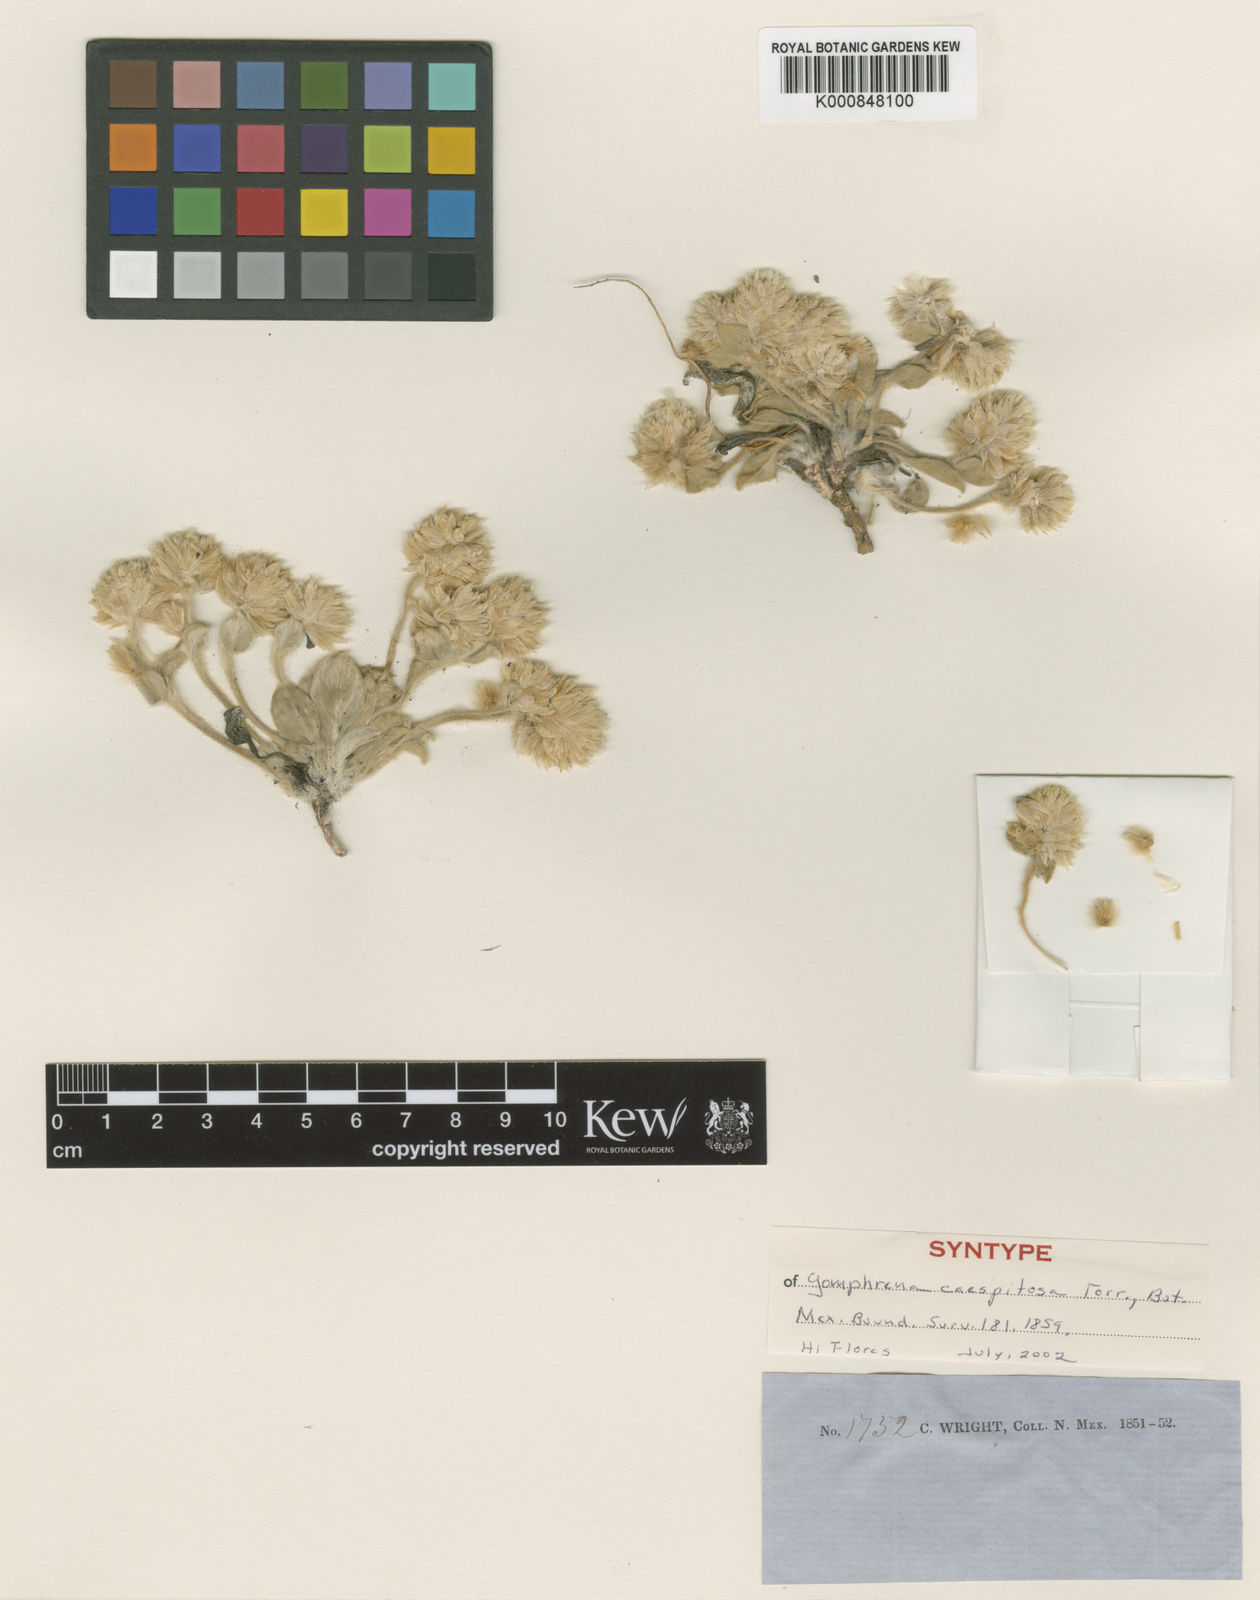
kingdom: Plantae
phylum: Tracheophyta
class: Magnoliopsida
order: Caryophyllales
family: Amaranthaceae
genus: Gomphrena
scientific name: Gomphrena caespitosa
